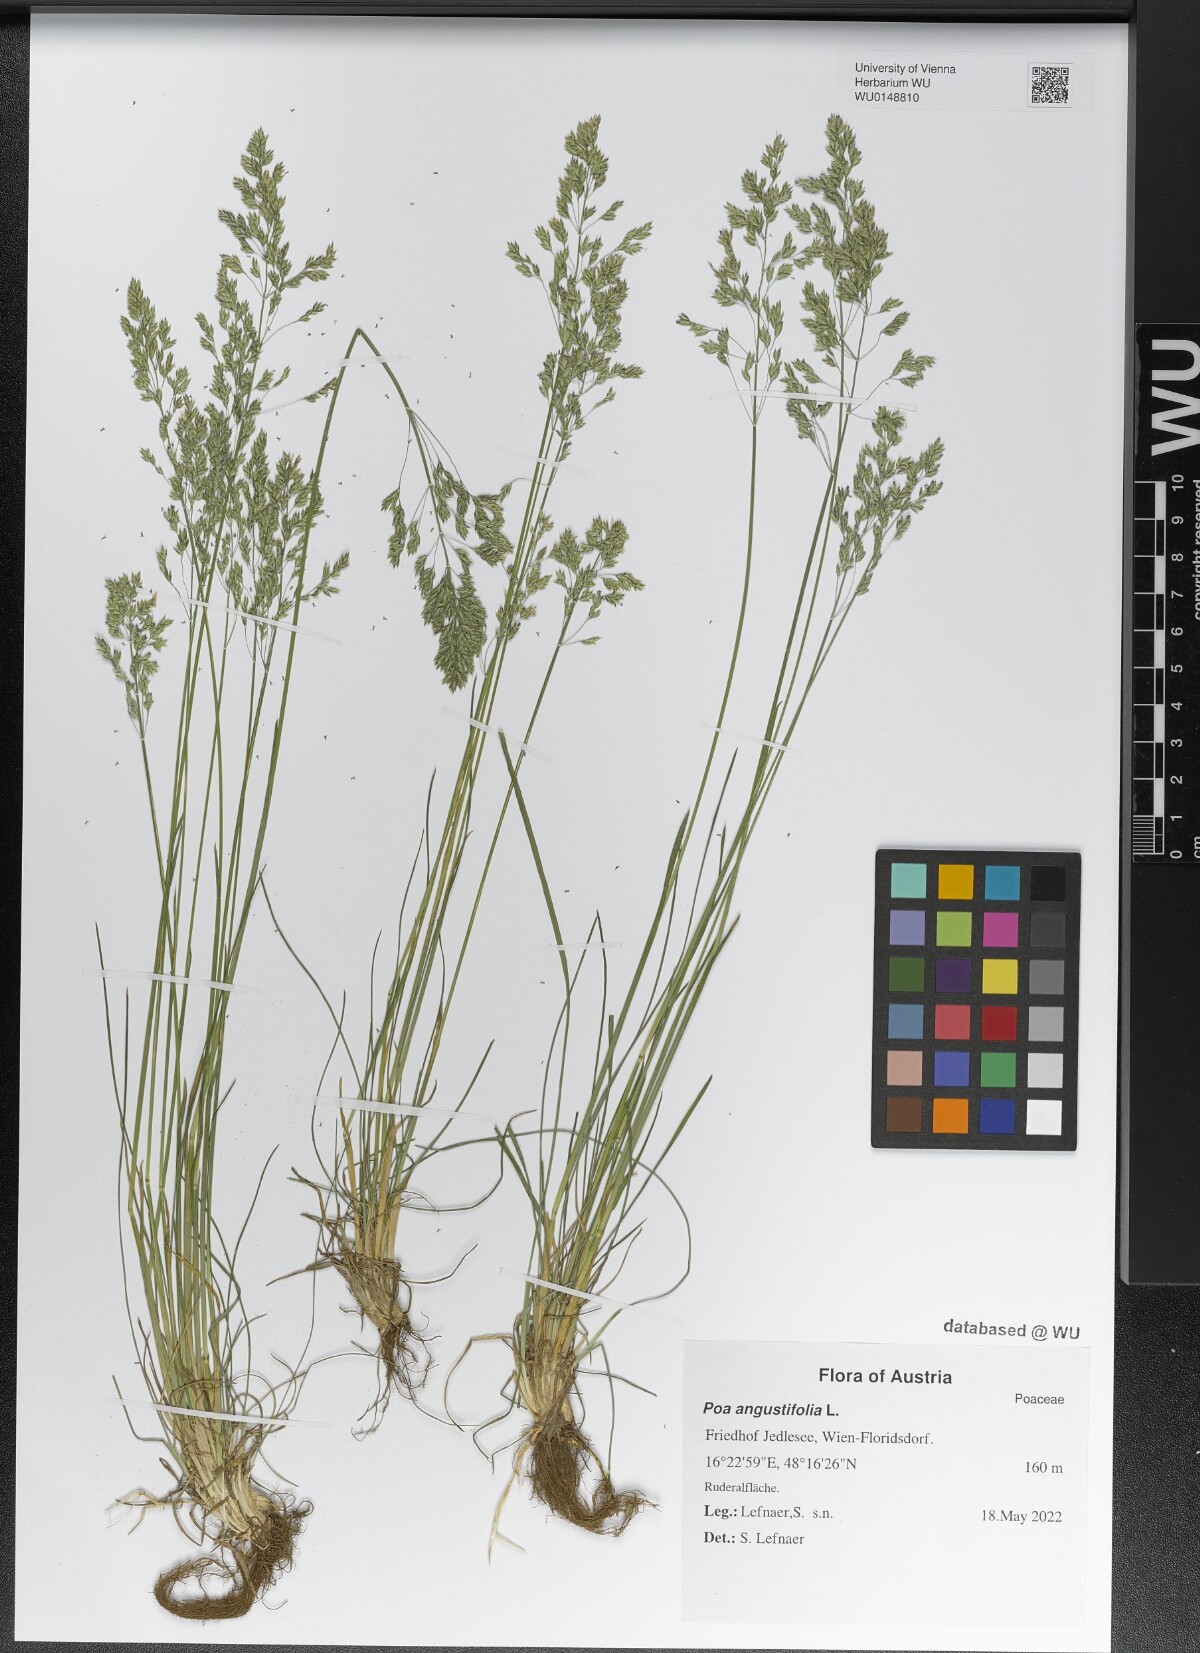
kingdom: Plantae
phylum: Tracheophyta
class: Liliopsida
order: Poales
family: Poaceae
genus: Poa
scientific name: Poa angustifolia
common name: Narrow-leaved meadow-grass
